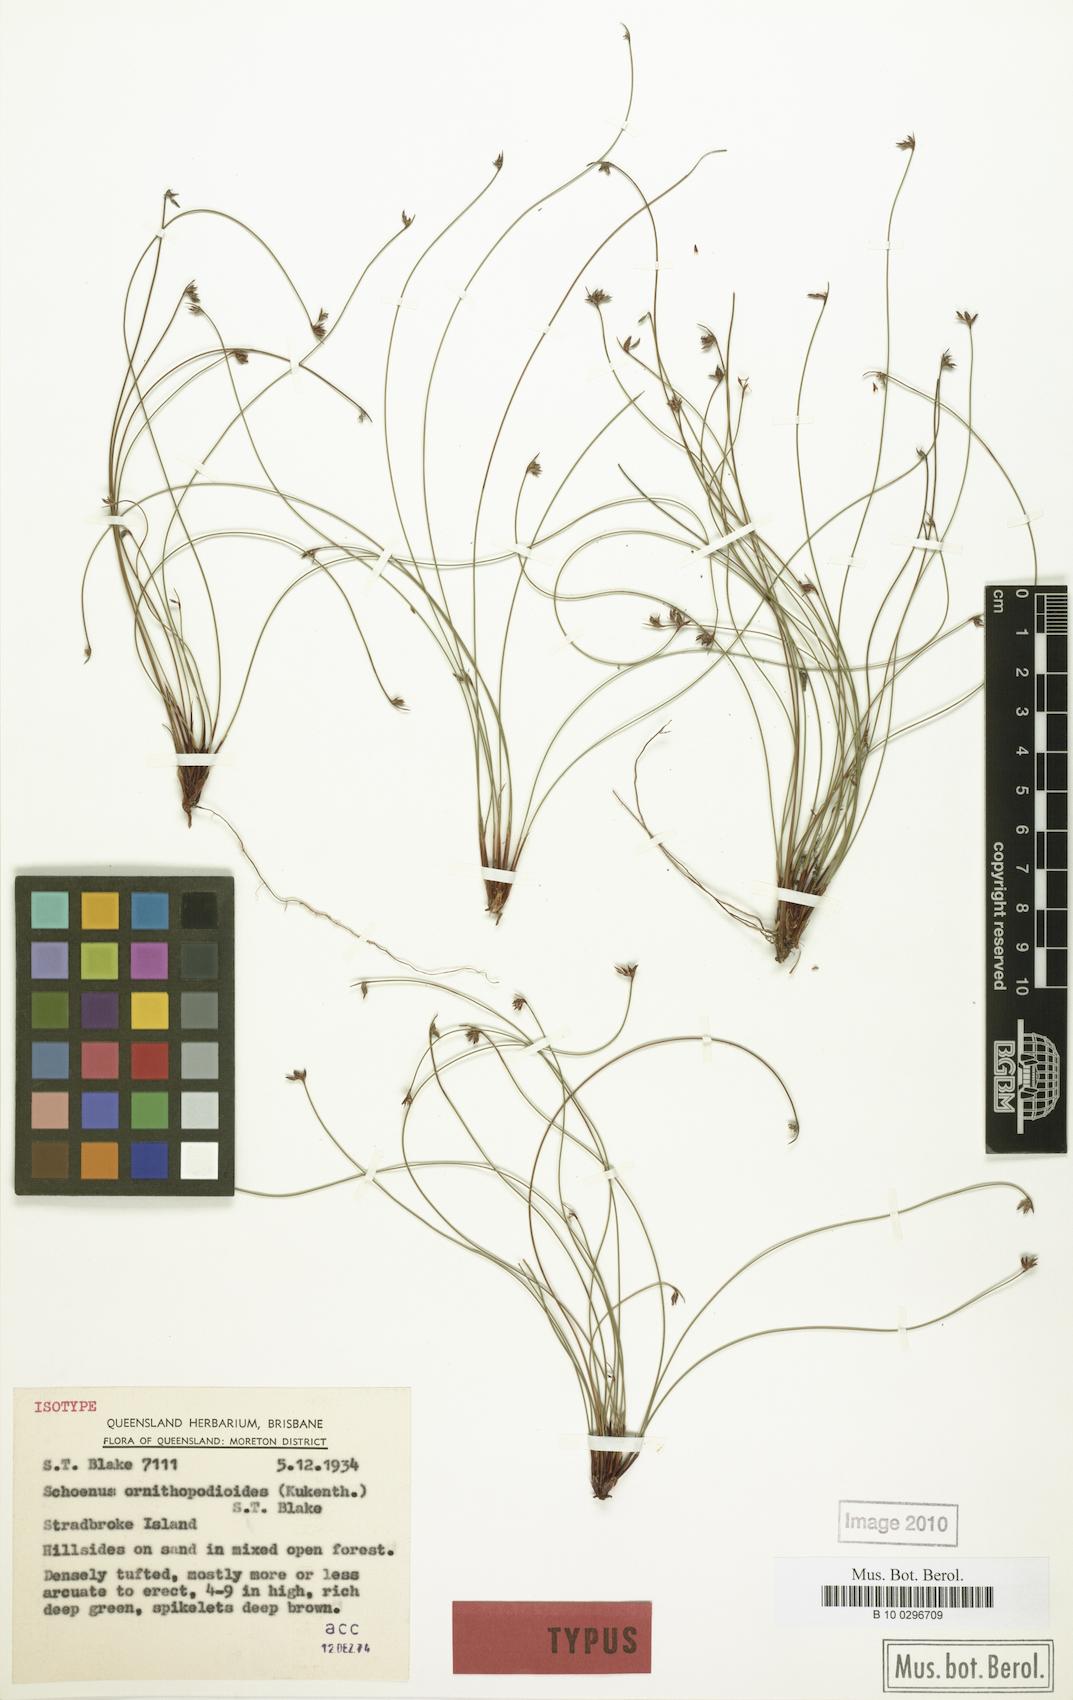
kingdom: Plantae
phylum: Tracheophyta
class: Liliopsida
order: Poales
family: Cyperaceae
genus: Schoenus
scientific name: Schoenus ornithopodioides
